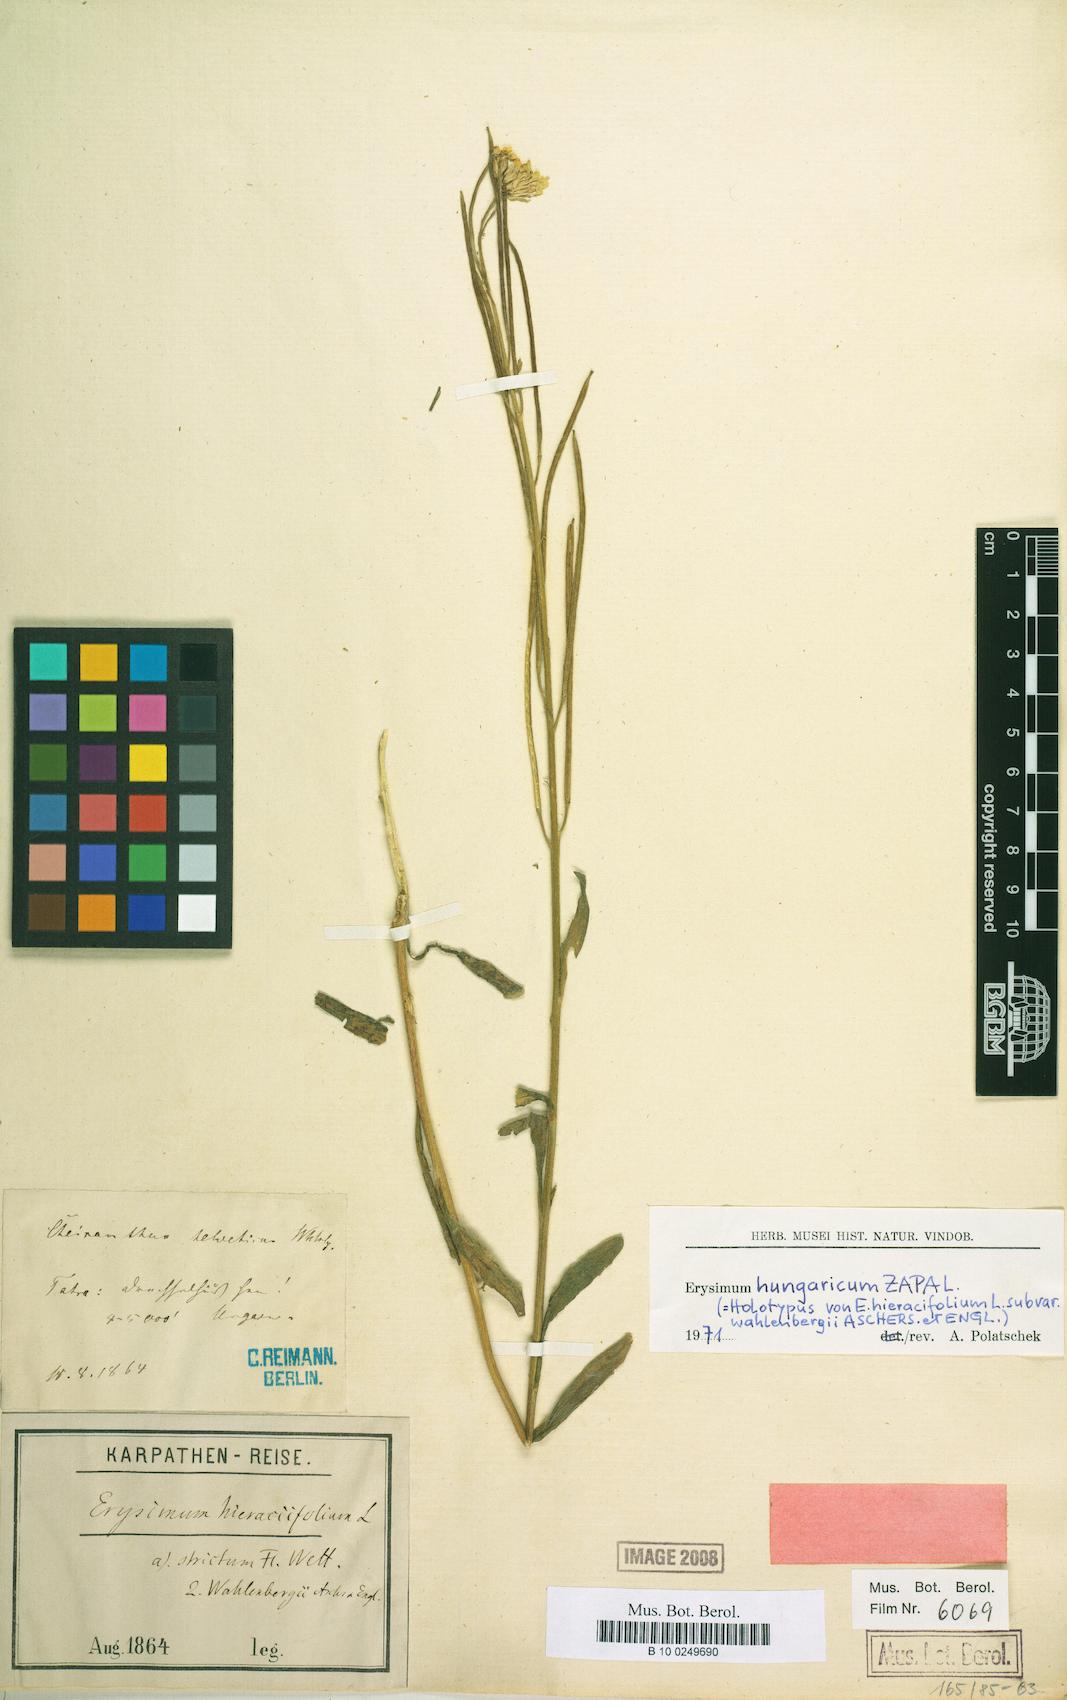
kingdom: Plantae
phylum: Tracheophyta
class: Magnoliopsida
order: Brassicales
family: Brassicaceae
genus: Erysimum
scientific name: Erysimum hungaricum
